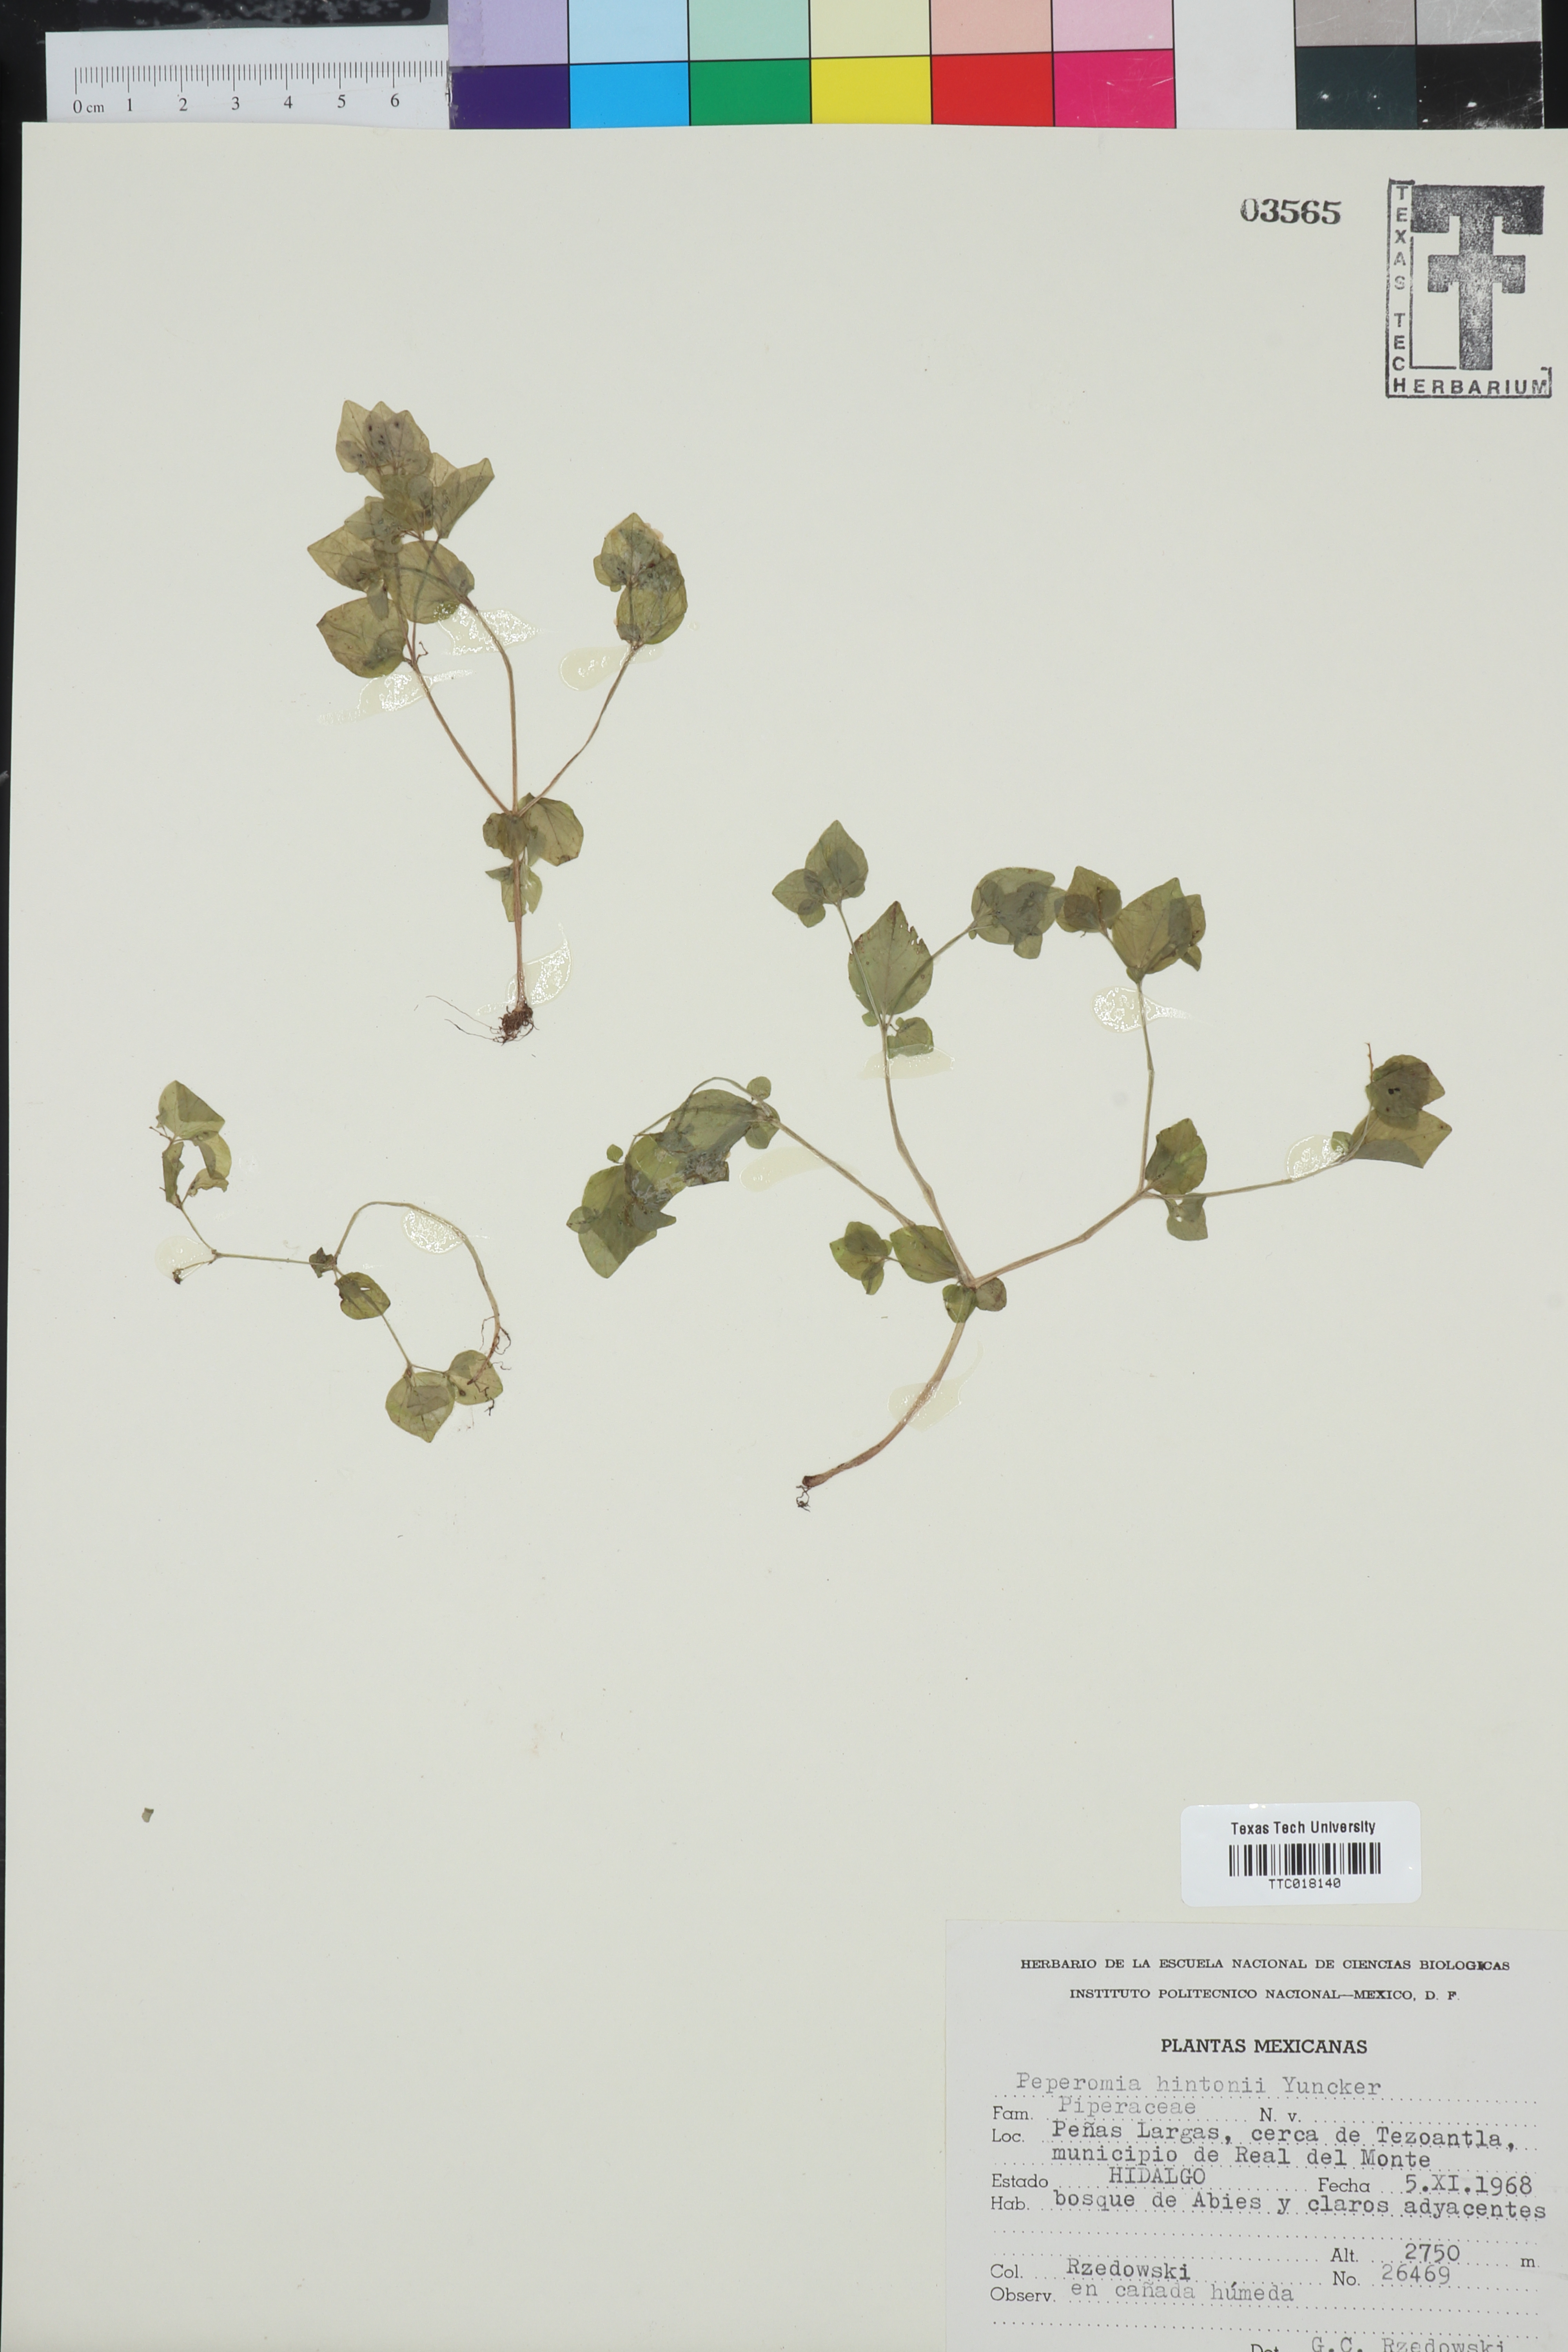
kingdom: Plantae
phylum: Tracheophyta
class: Magnoliopsida
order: Piperales
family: Piperaceae
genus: Peperomia
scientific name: Peperomia hintonii
